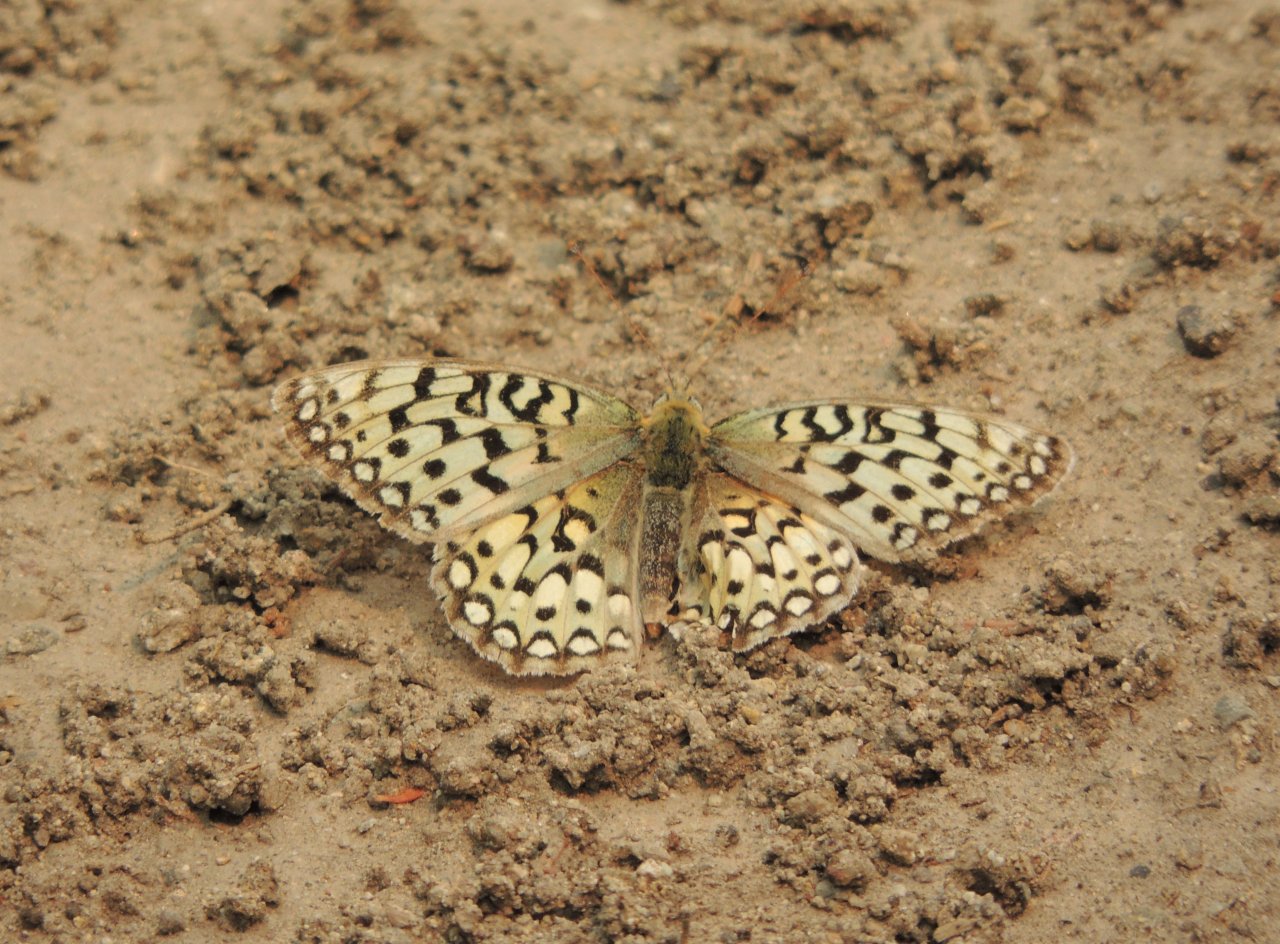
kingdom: Animalia
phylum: Arthropoda
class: Insecta
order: Lepidoptera
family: Nymphalidae
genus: Speyeria
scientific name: Speyeria callippe
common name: Callippe Fritillary
